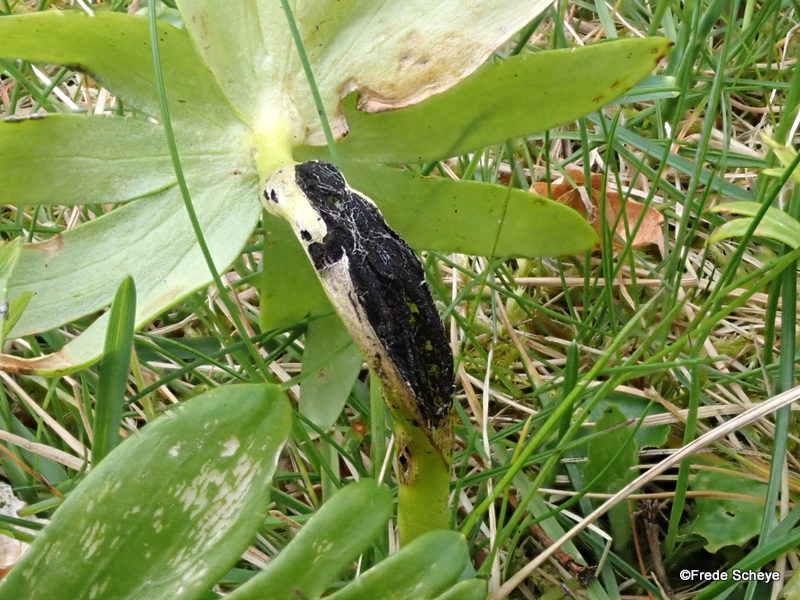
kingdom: Fungi
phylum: Basidiomycota
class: Ustilaginomycetes
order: Urocystidales
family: Urocystidaceae
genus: Urocystis
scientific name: Urocystis eranthidis
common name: erantis-brand
